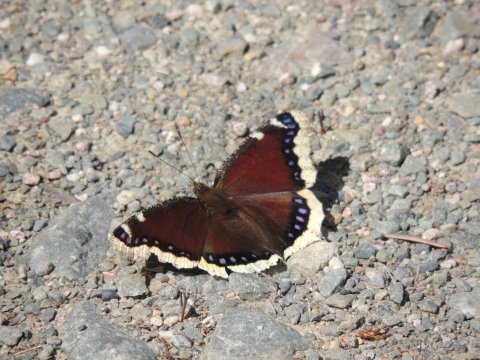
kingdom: Animalia
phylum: Arthropoda
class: Insecta
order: Lepidoptera
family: Nymphalidae
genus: Nymphalis
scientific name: Nymphalis antiopa
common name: Mourning Cloak
